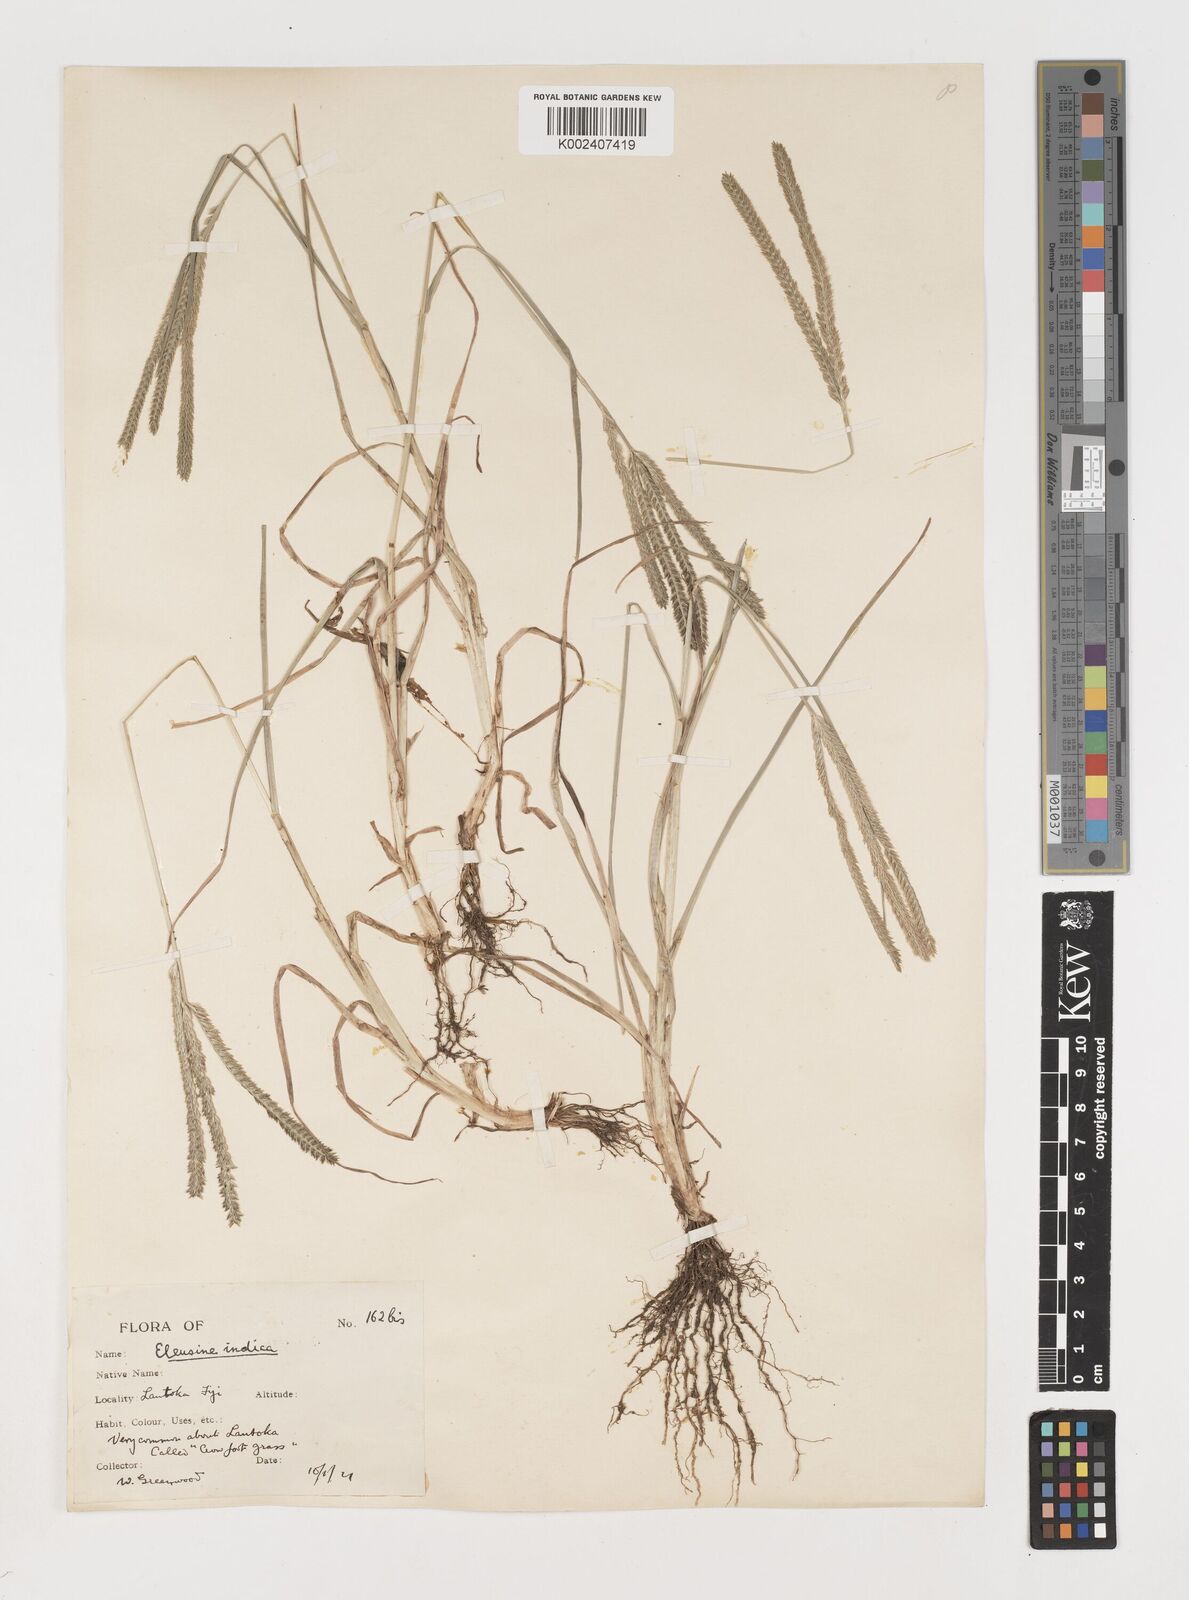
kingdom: Plantae
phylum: Tracheophyta
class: Liliopsida
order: Poales
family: Poaceae
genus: Eleusine
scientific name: Eleusine indica
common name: Yard-grass
